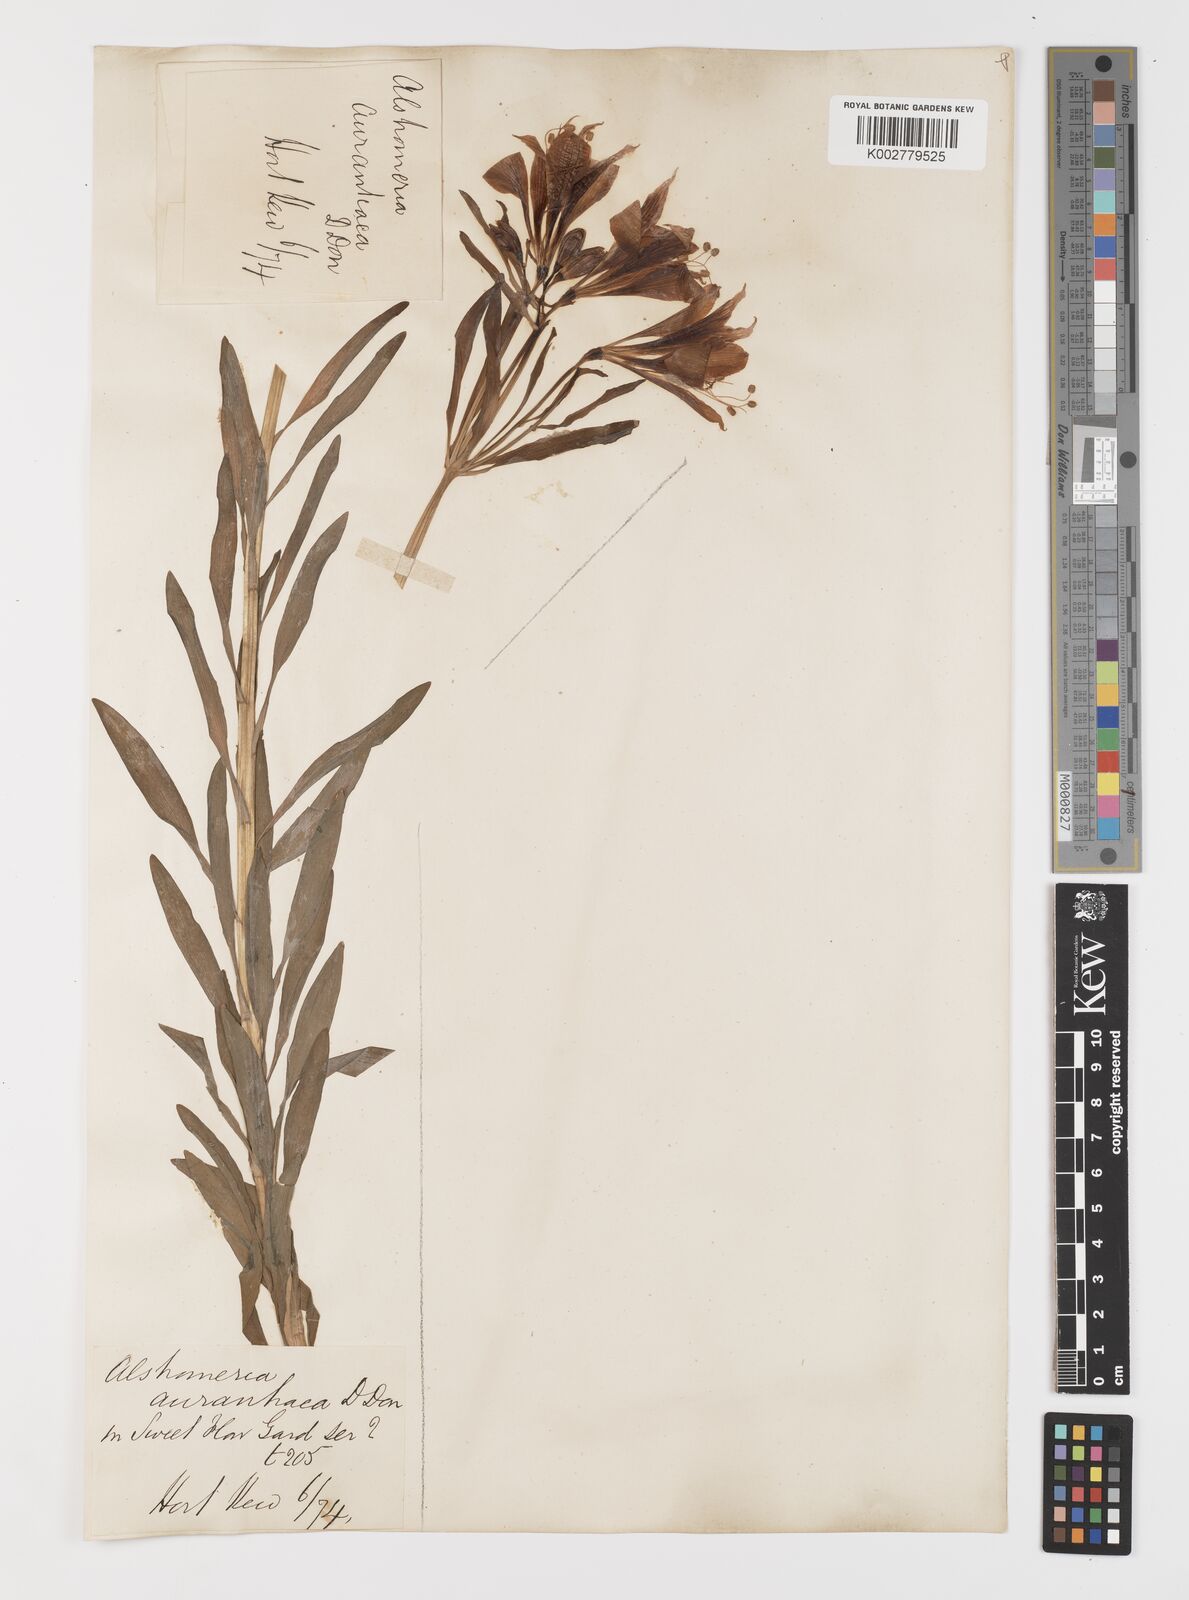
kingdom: Plantae
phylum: Tracheophyta
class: Liliopsida
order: Liliales
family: Alstroemeriaceae
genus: Alstroemeria
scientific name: Alstroemeria aurea
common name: Peruvian lily
